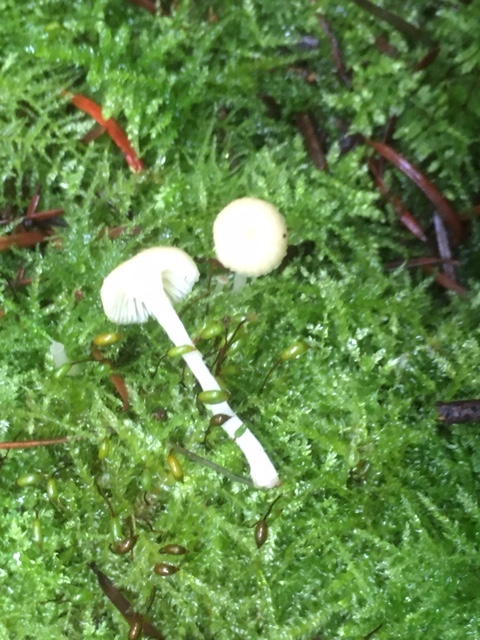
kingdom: Fungi
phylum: Basidiomycota
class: Agaricomycetes
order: Agaricales
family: Hygrophoraceae
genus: Chrysomphalina
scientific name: Chrysomphalina grossula
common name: stød-gyldenblad
